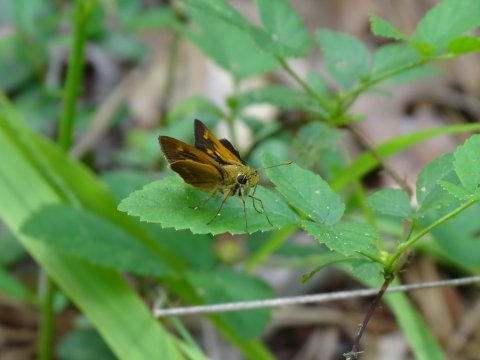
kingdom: Animalia
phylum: Arthropoda
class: Insecta
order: Lepidoptera
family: Hesperiidae
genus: Wallengrenia
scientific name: Wallengrenia otho
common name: Southern Broken-Dash
